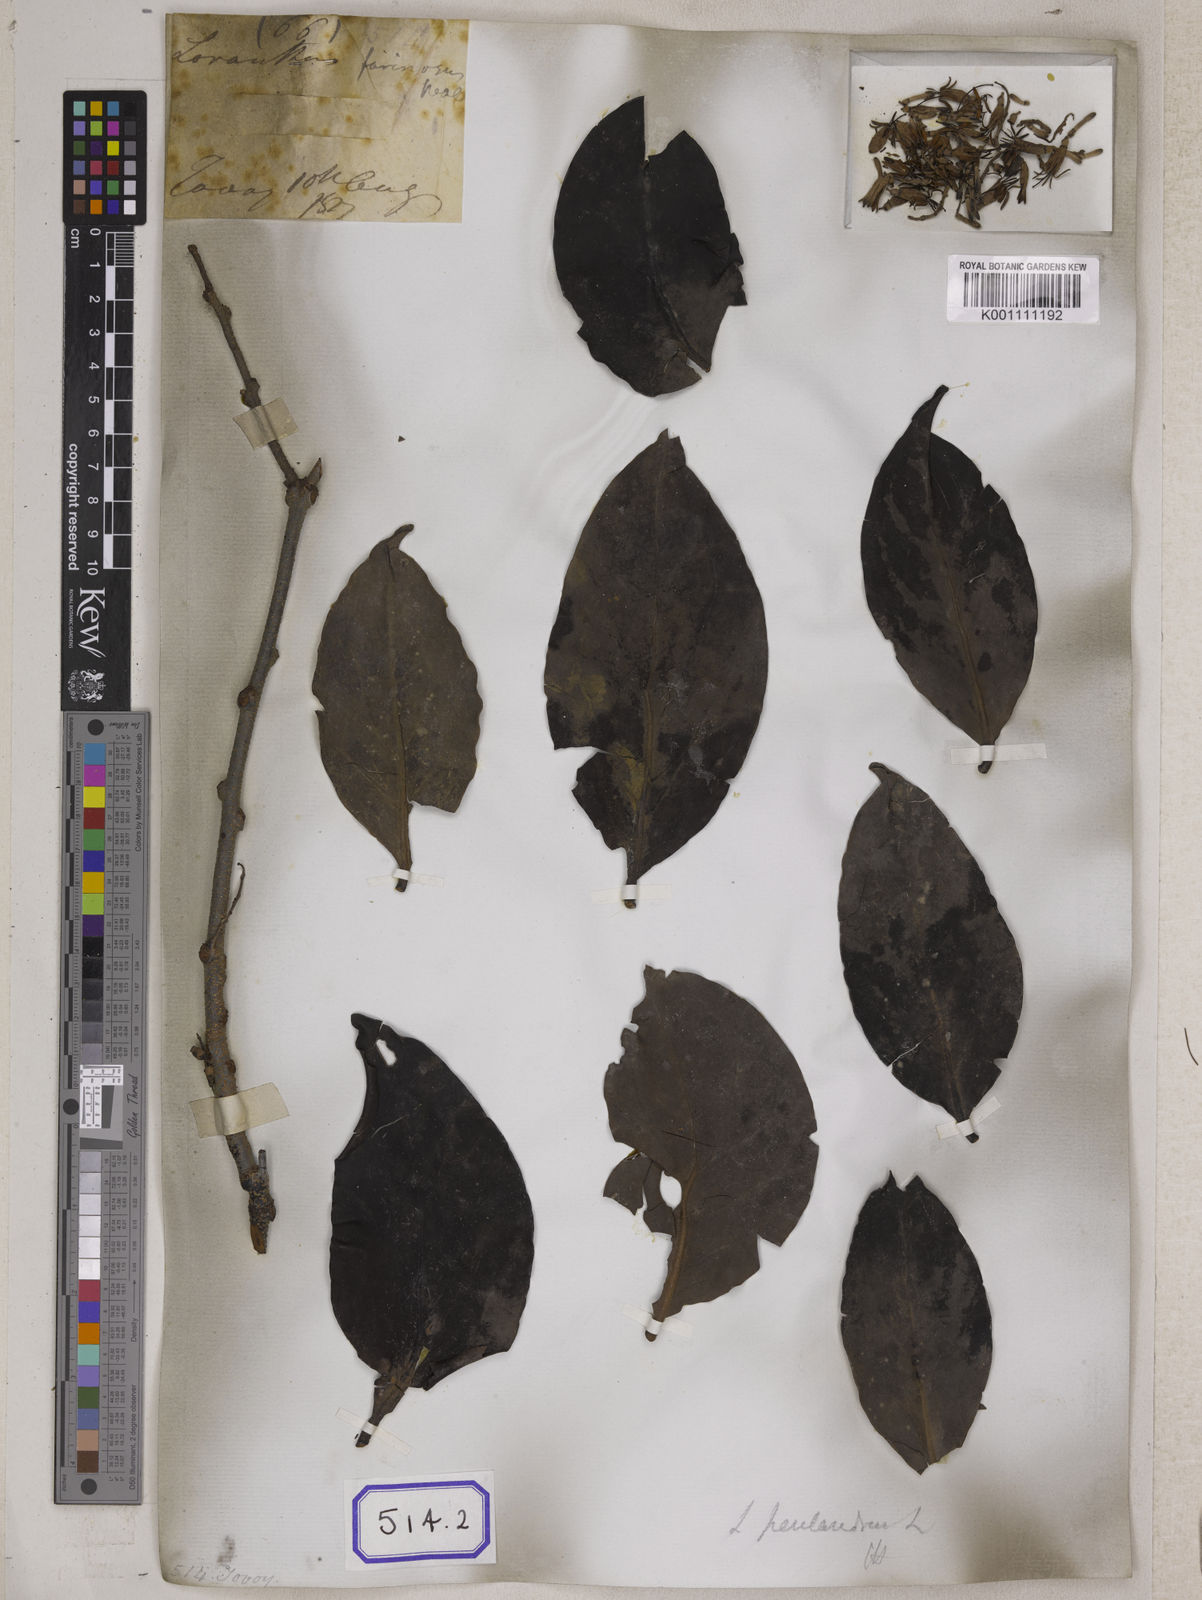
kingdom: Plantae
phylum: Tracheophyta
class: Magnoliopsida
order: Santalales
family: Loranthaceae
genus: Loranthus
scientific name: Loranthus
